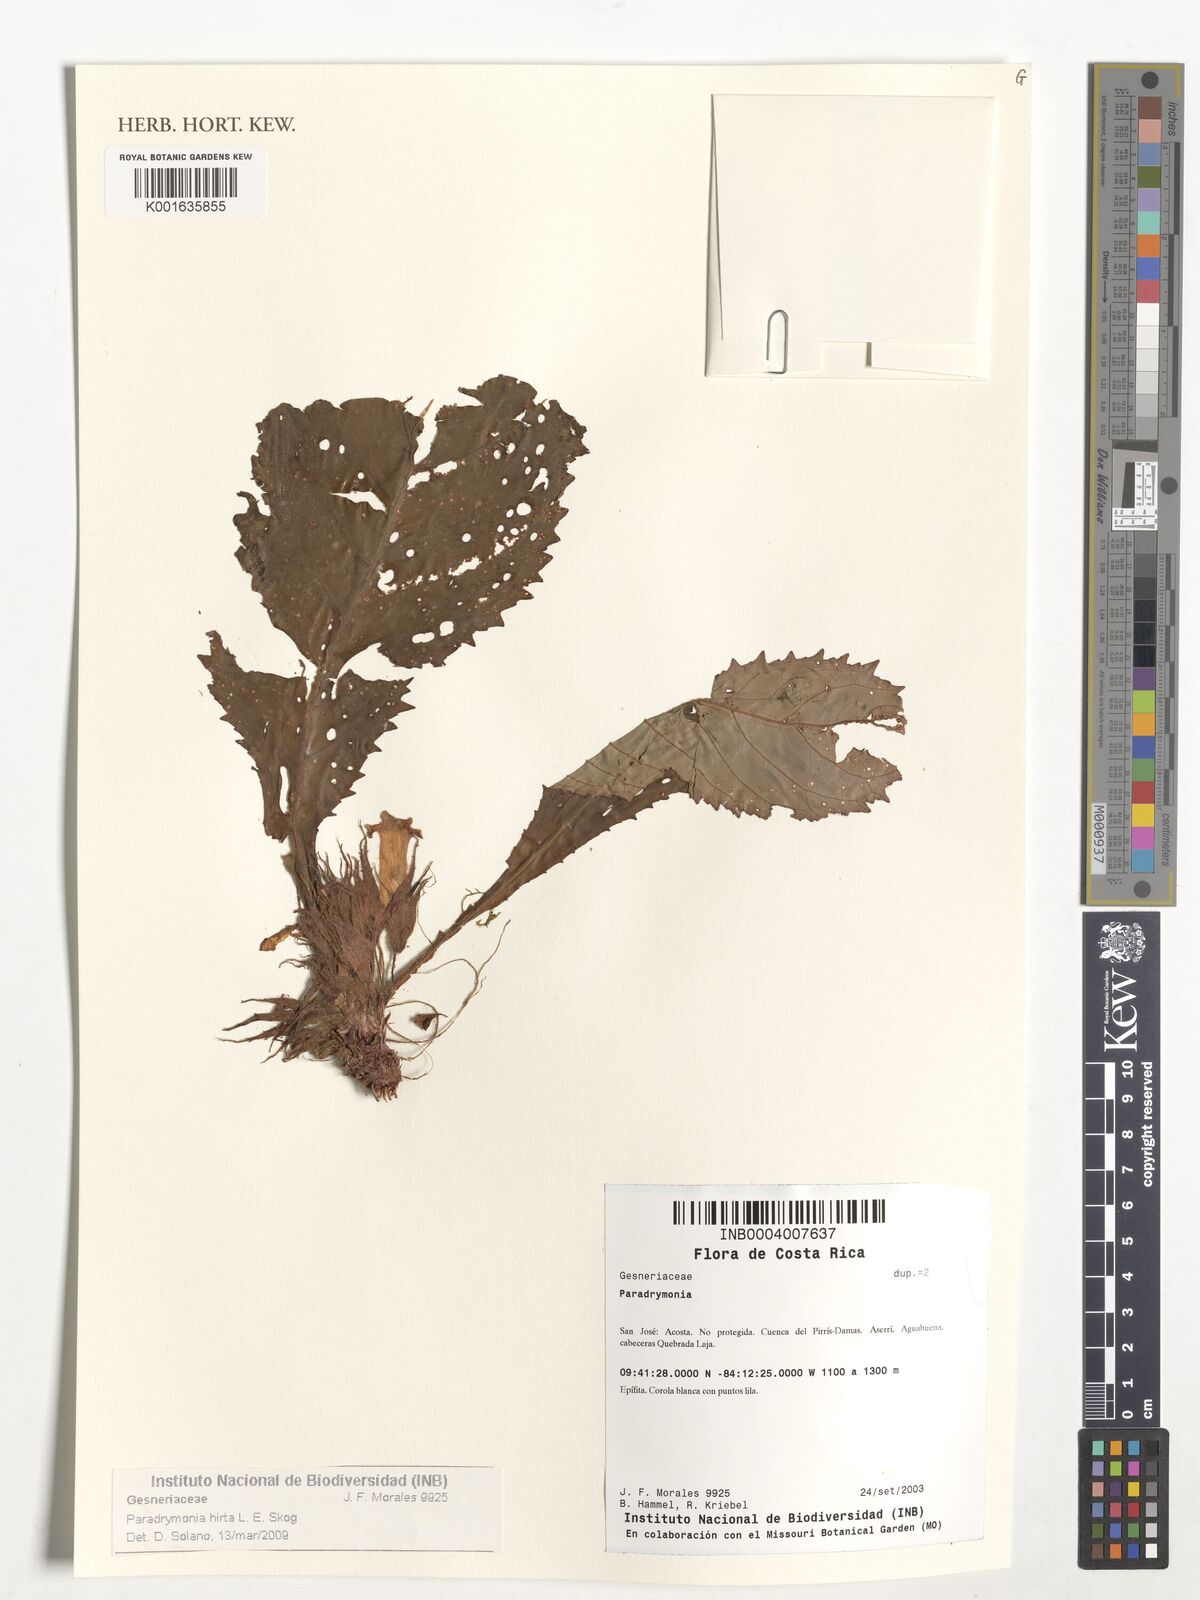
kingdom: Plantae
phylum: Tracheophyta
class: Magnoliopsida
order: Lamiales
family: Gesneriaceae
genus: Trichodrymonia
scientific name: Trichodrymonia hirta
